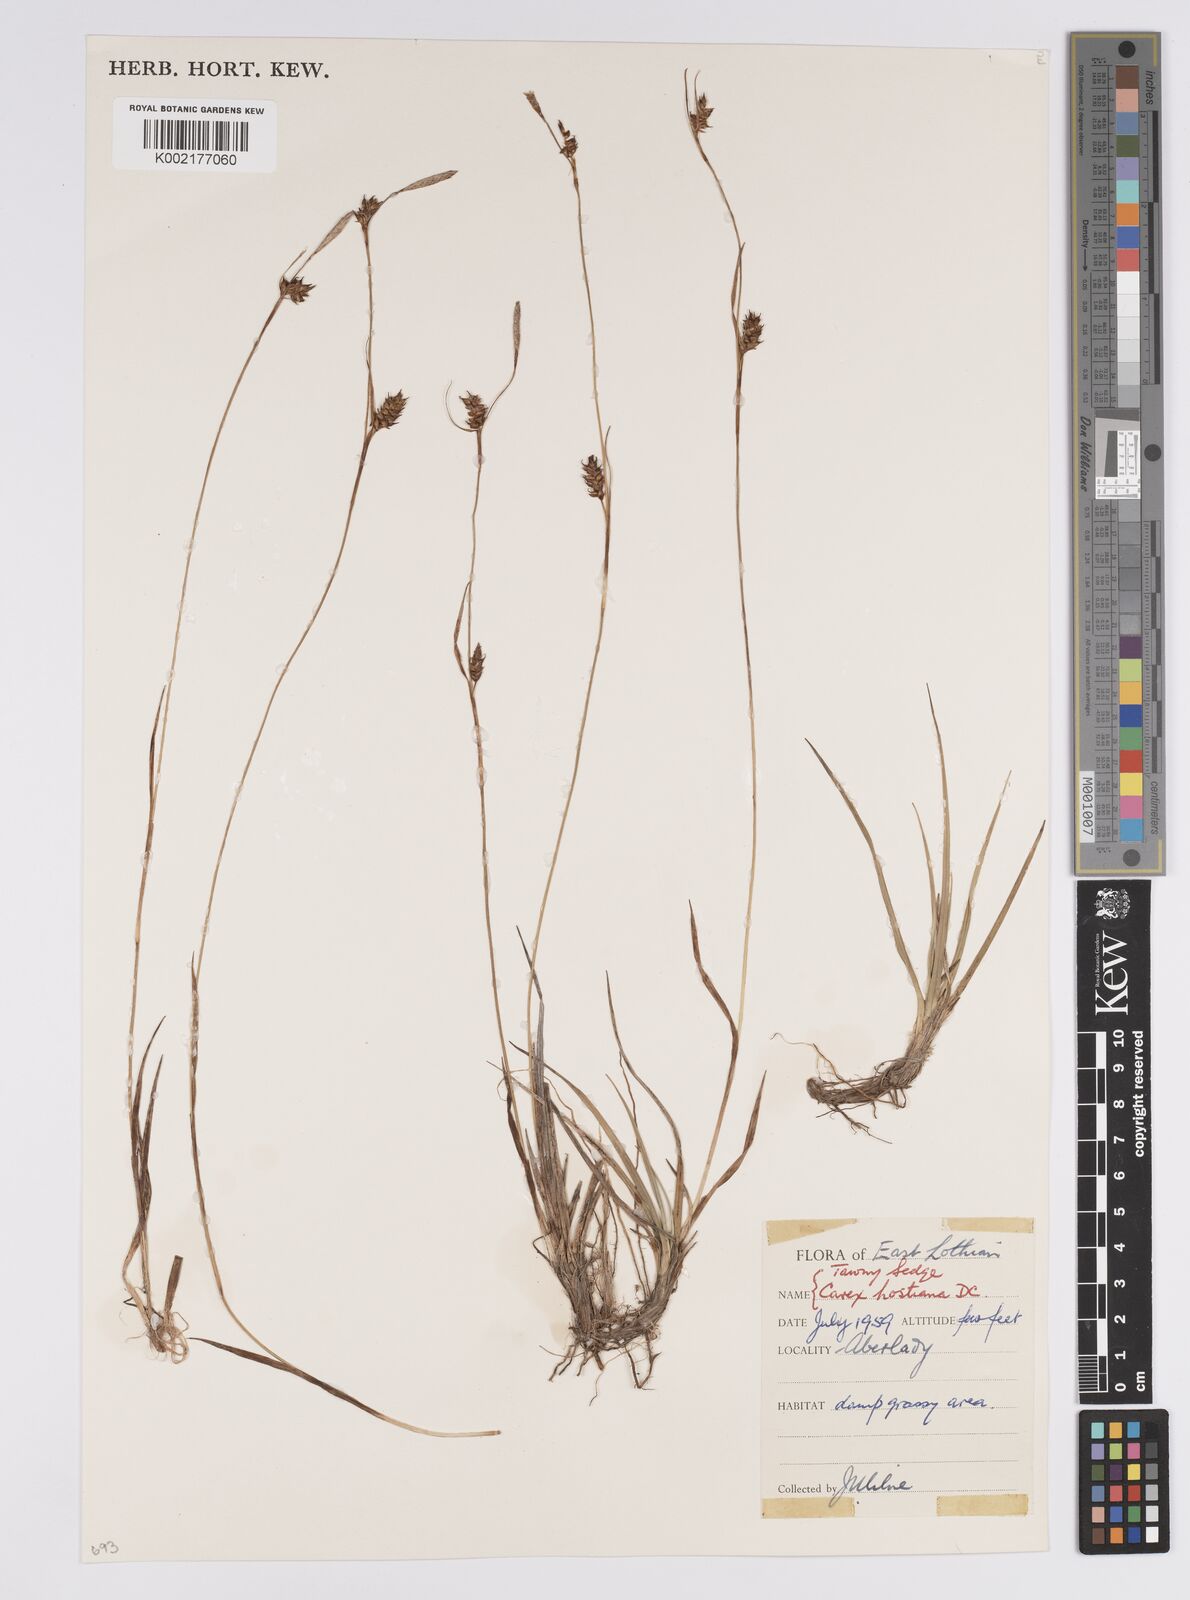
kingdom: Plantae
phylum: Tracheophyta
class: Liliopsida
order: Poales
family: Cyperaceae
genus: Carex
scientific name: Carex hostiana
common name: Tawny sedge
